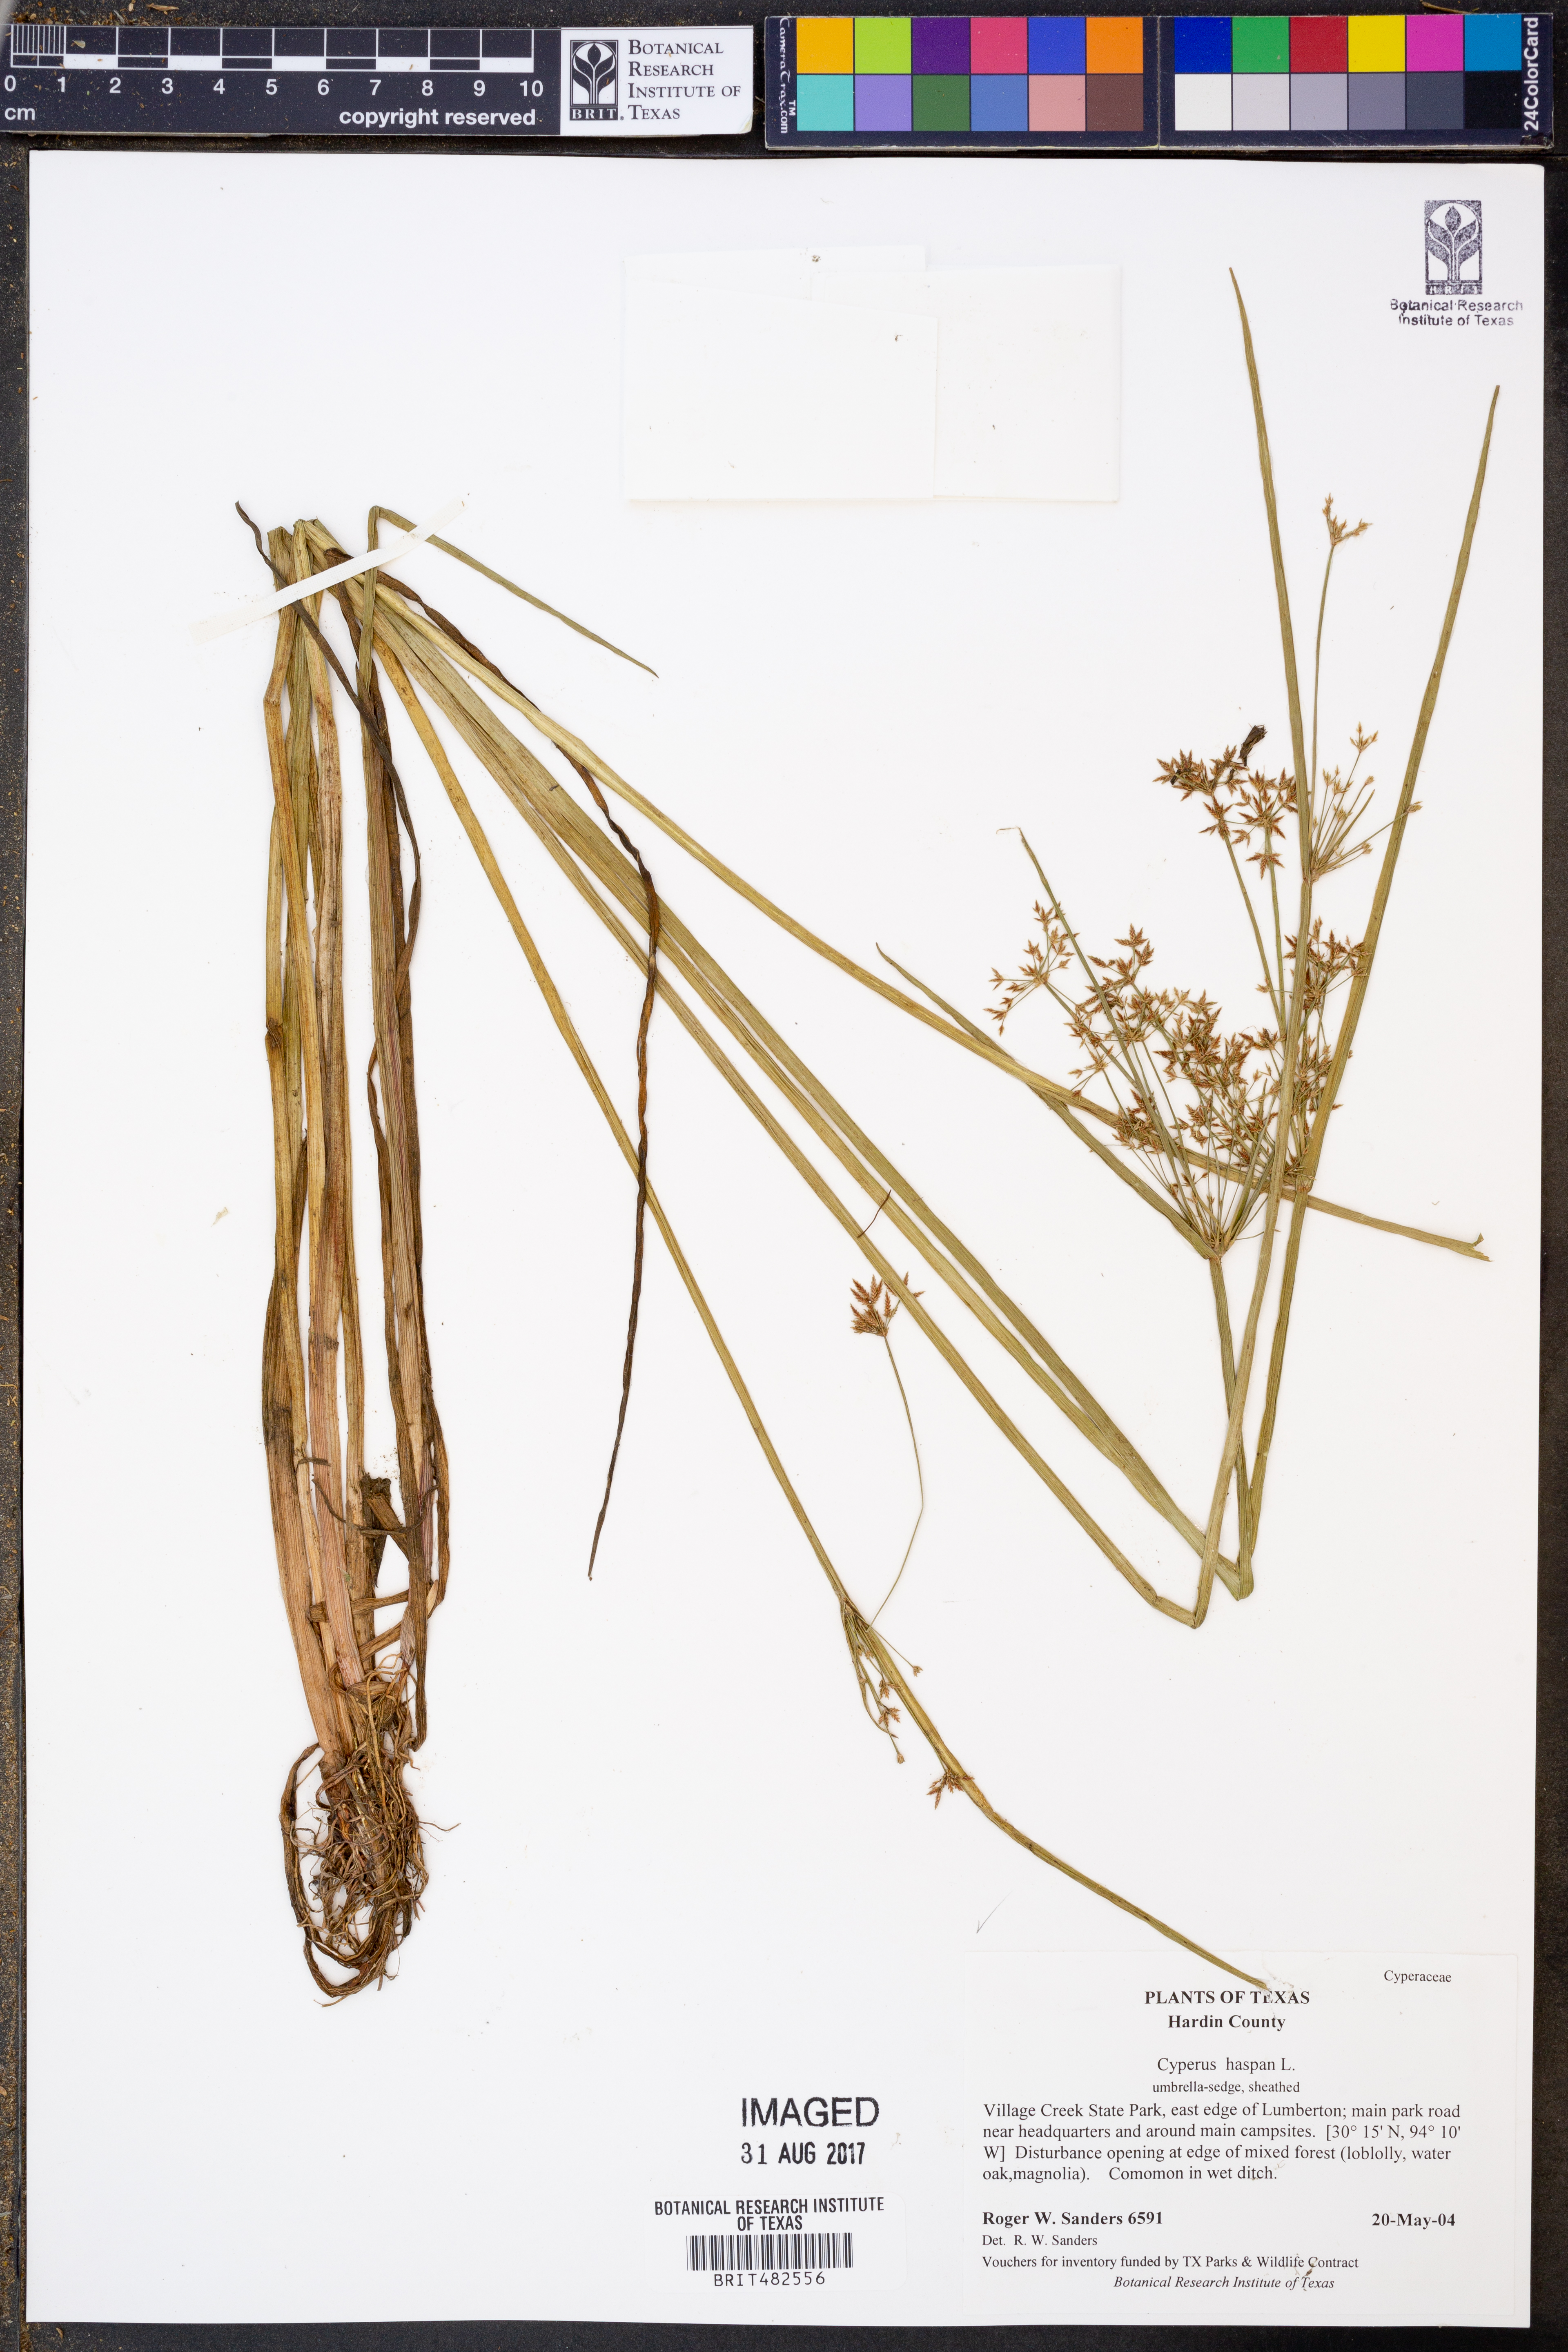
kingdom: Plantae
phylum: Tracheophyta
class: Liliopsida
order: Poales
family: Cyperaceae
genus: Cyperus
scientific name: Cyperus haspan
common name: Haspan flatsedge
